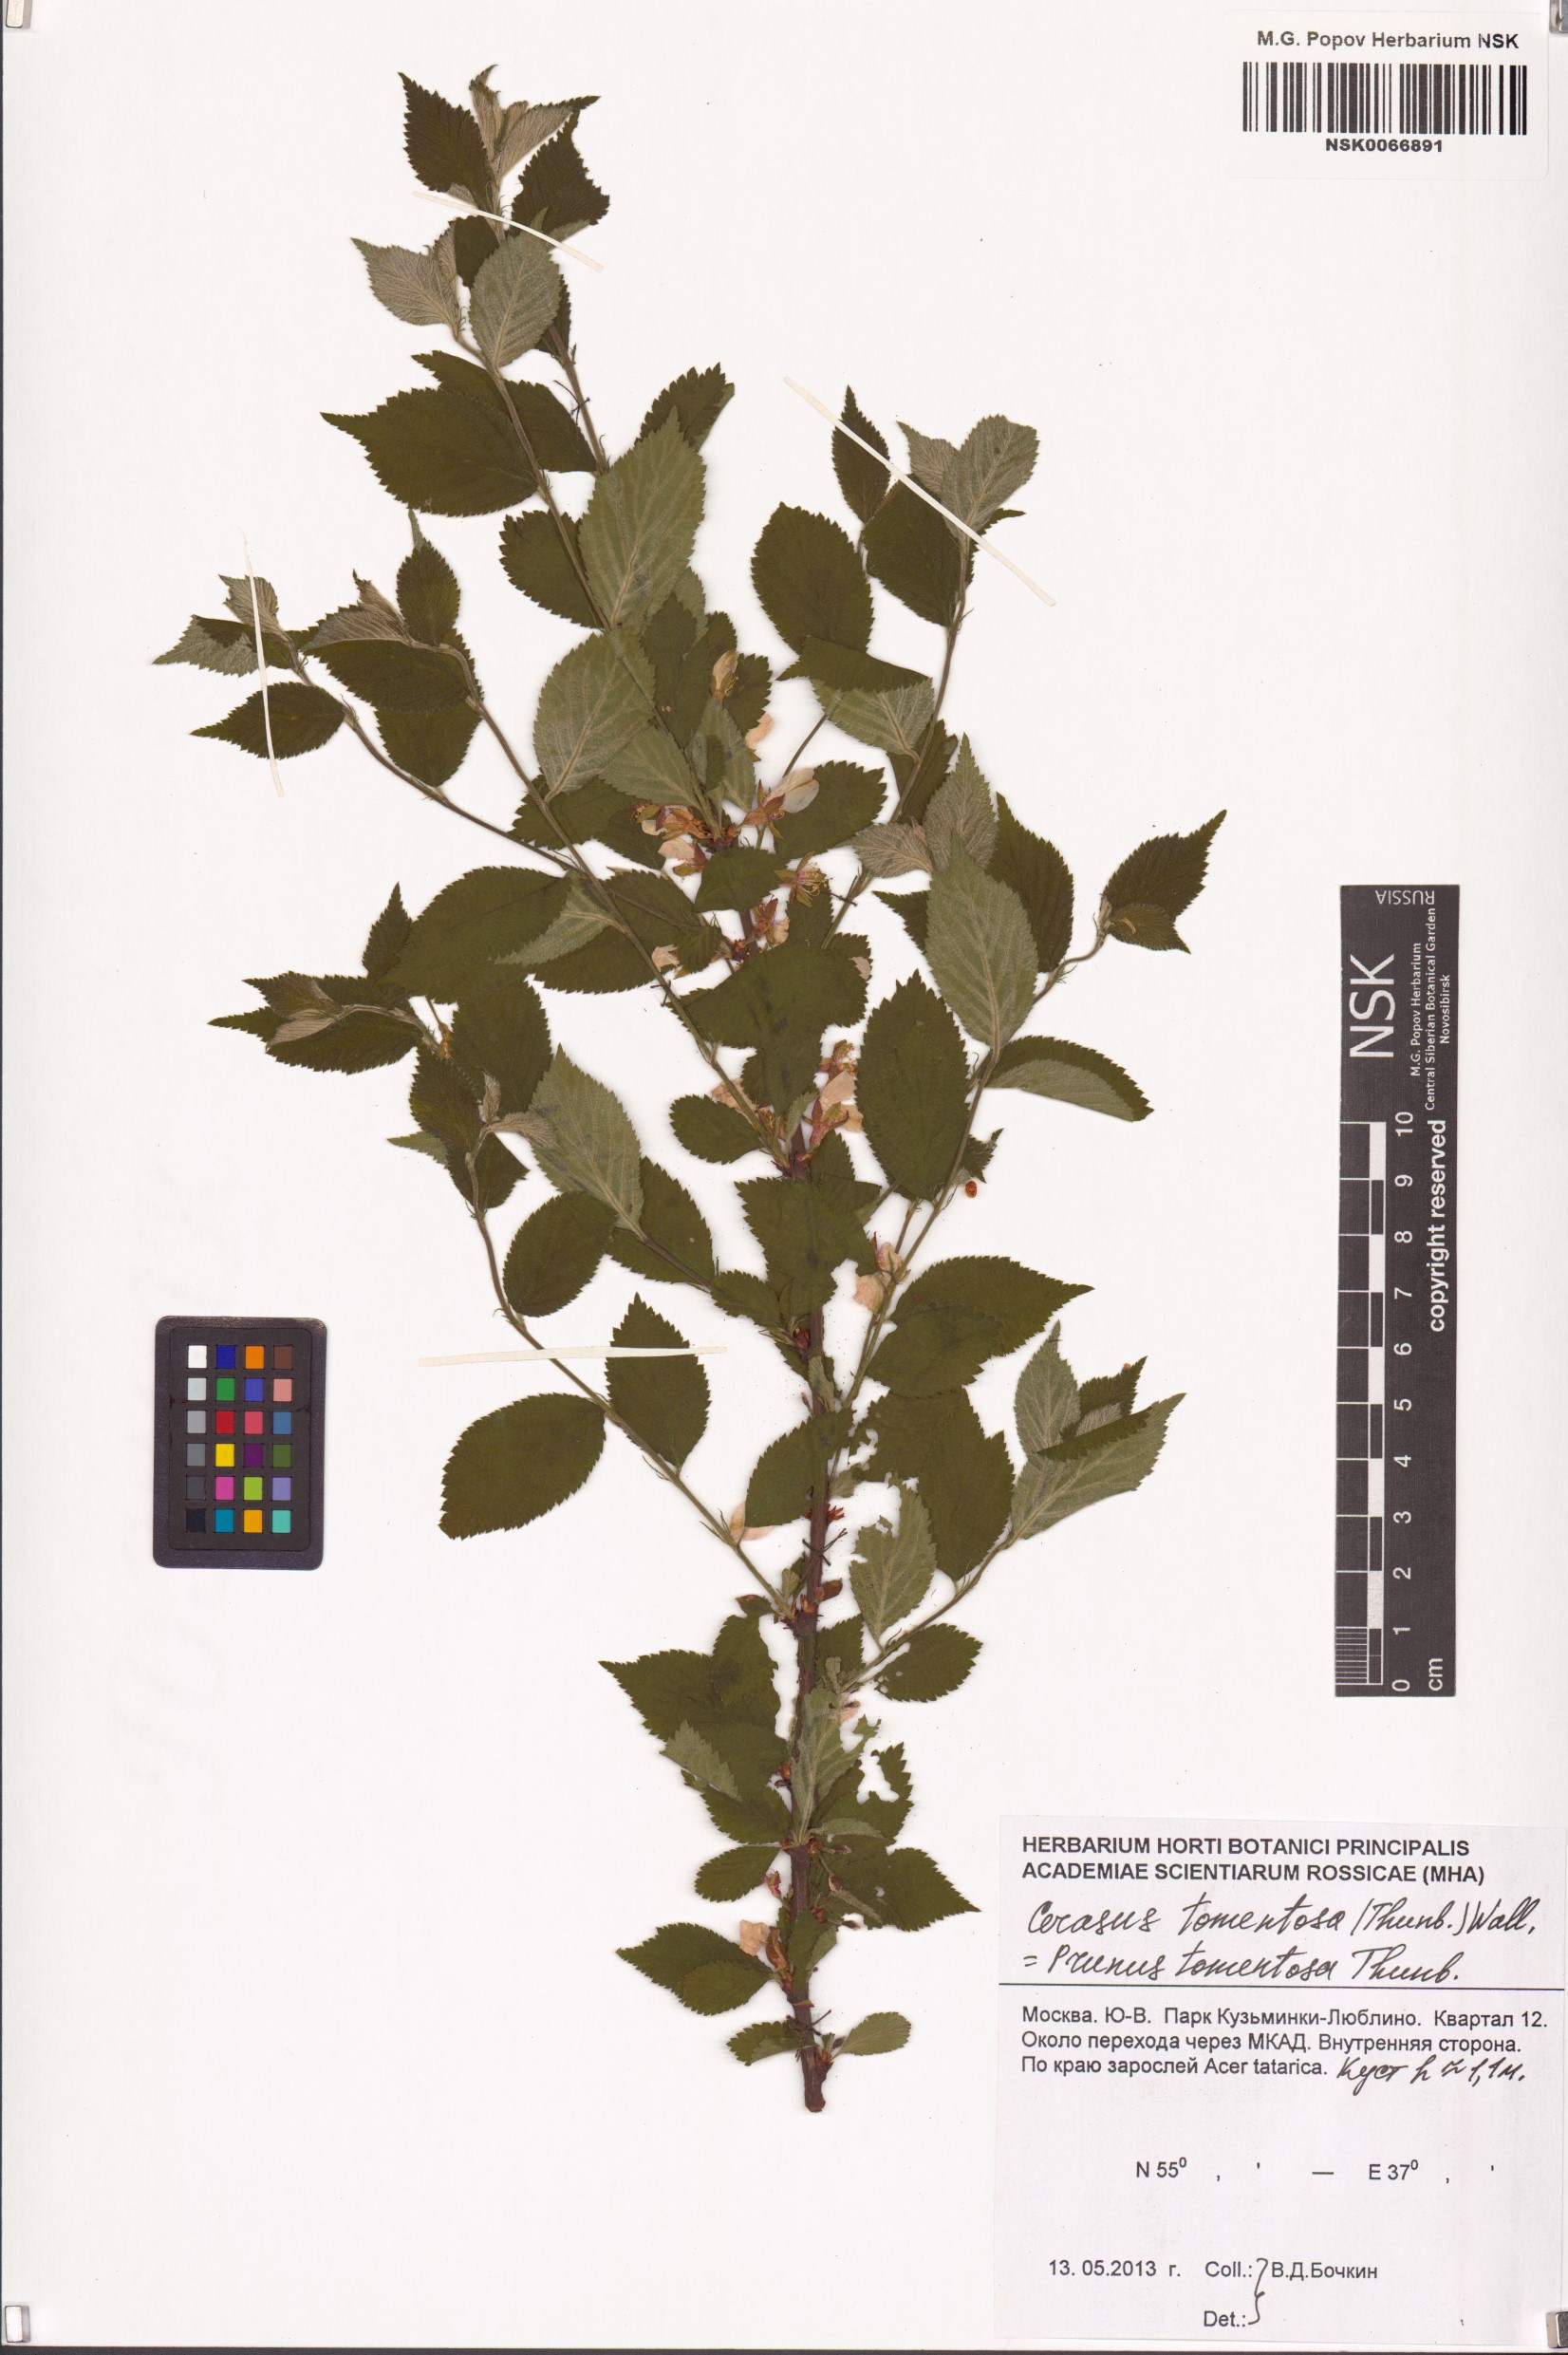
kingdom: Plantae
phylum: Tracheophyta
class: Magnoliopsida
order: Rosales
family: Rosaceae
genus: Prunus
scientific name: Prunus tomentosa
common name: Nanking cherry
